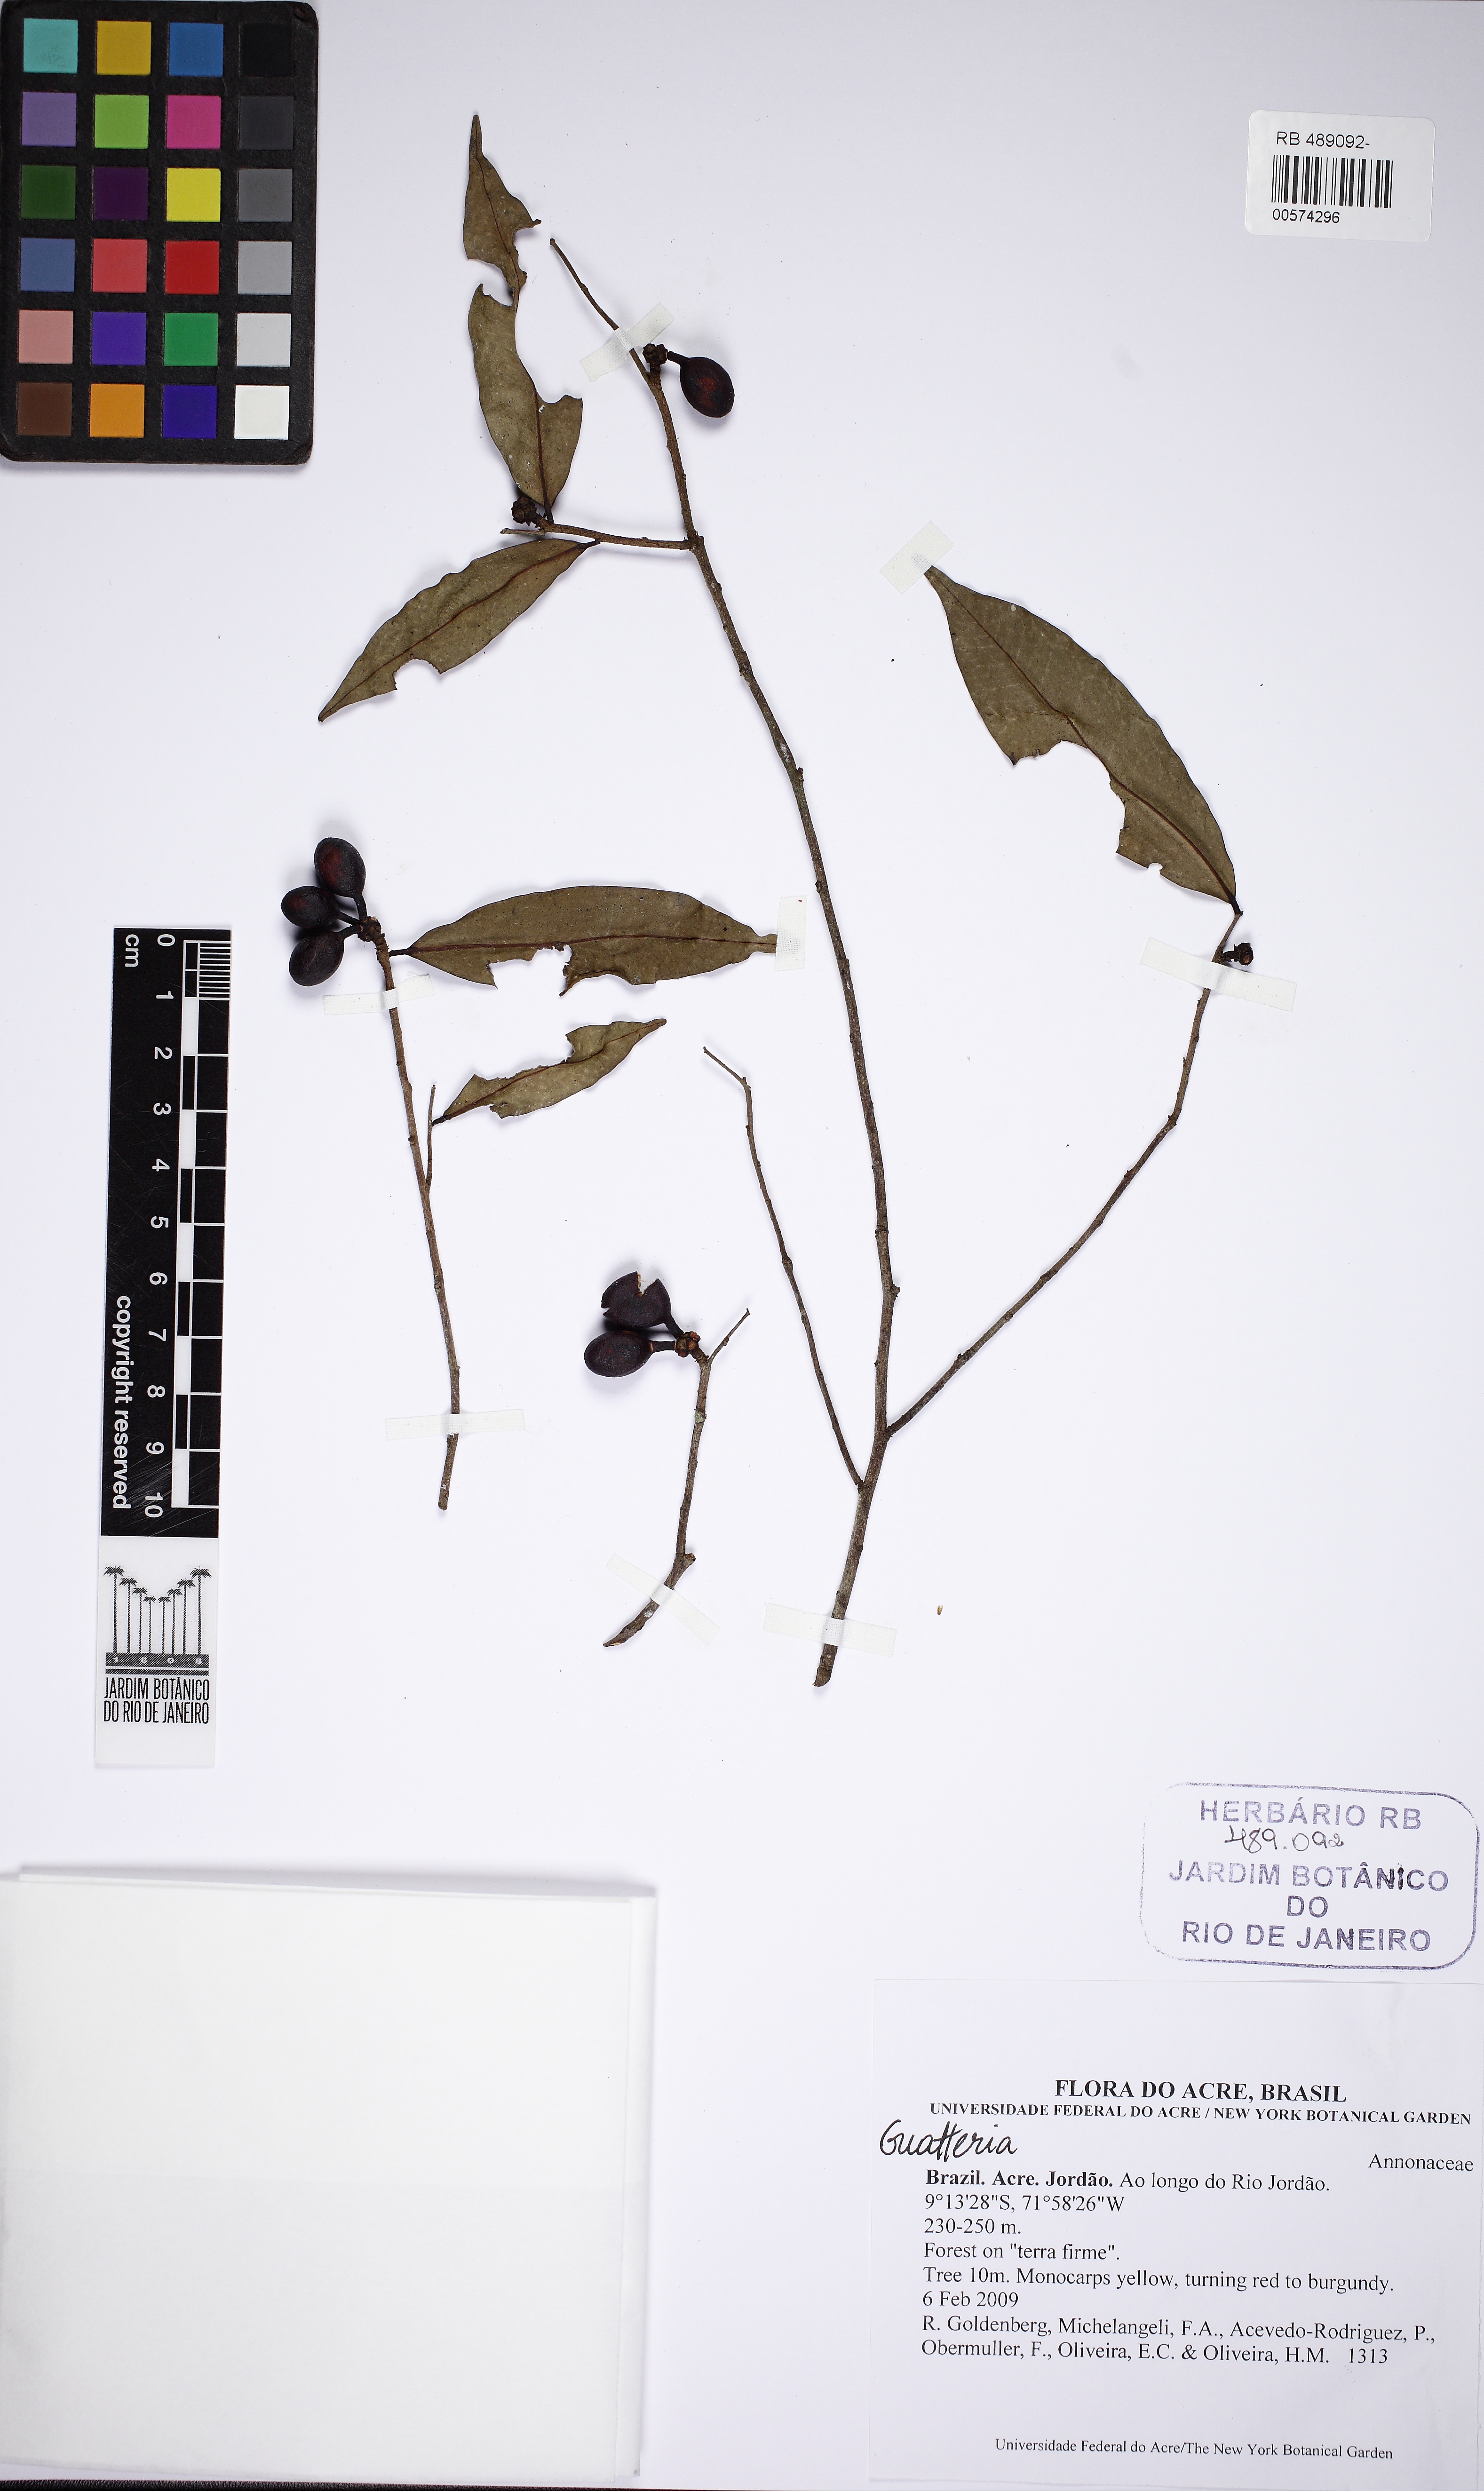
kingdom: Plantae
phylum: Tracheophyta
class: Magnoliopsida
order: Magnoliales
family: Annonaceae
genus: Guatteria
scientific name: Guatteria
